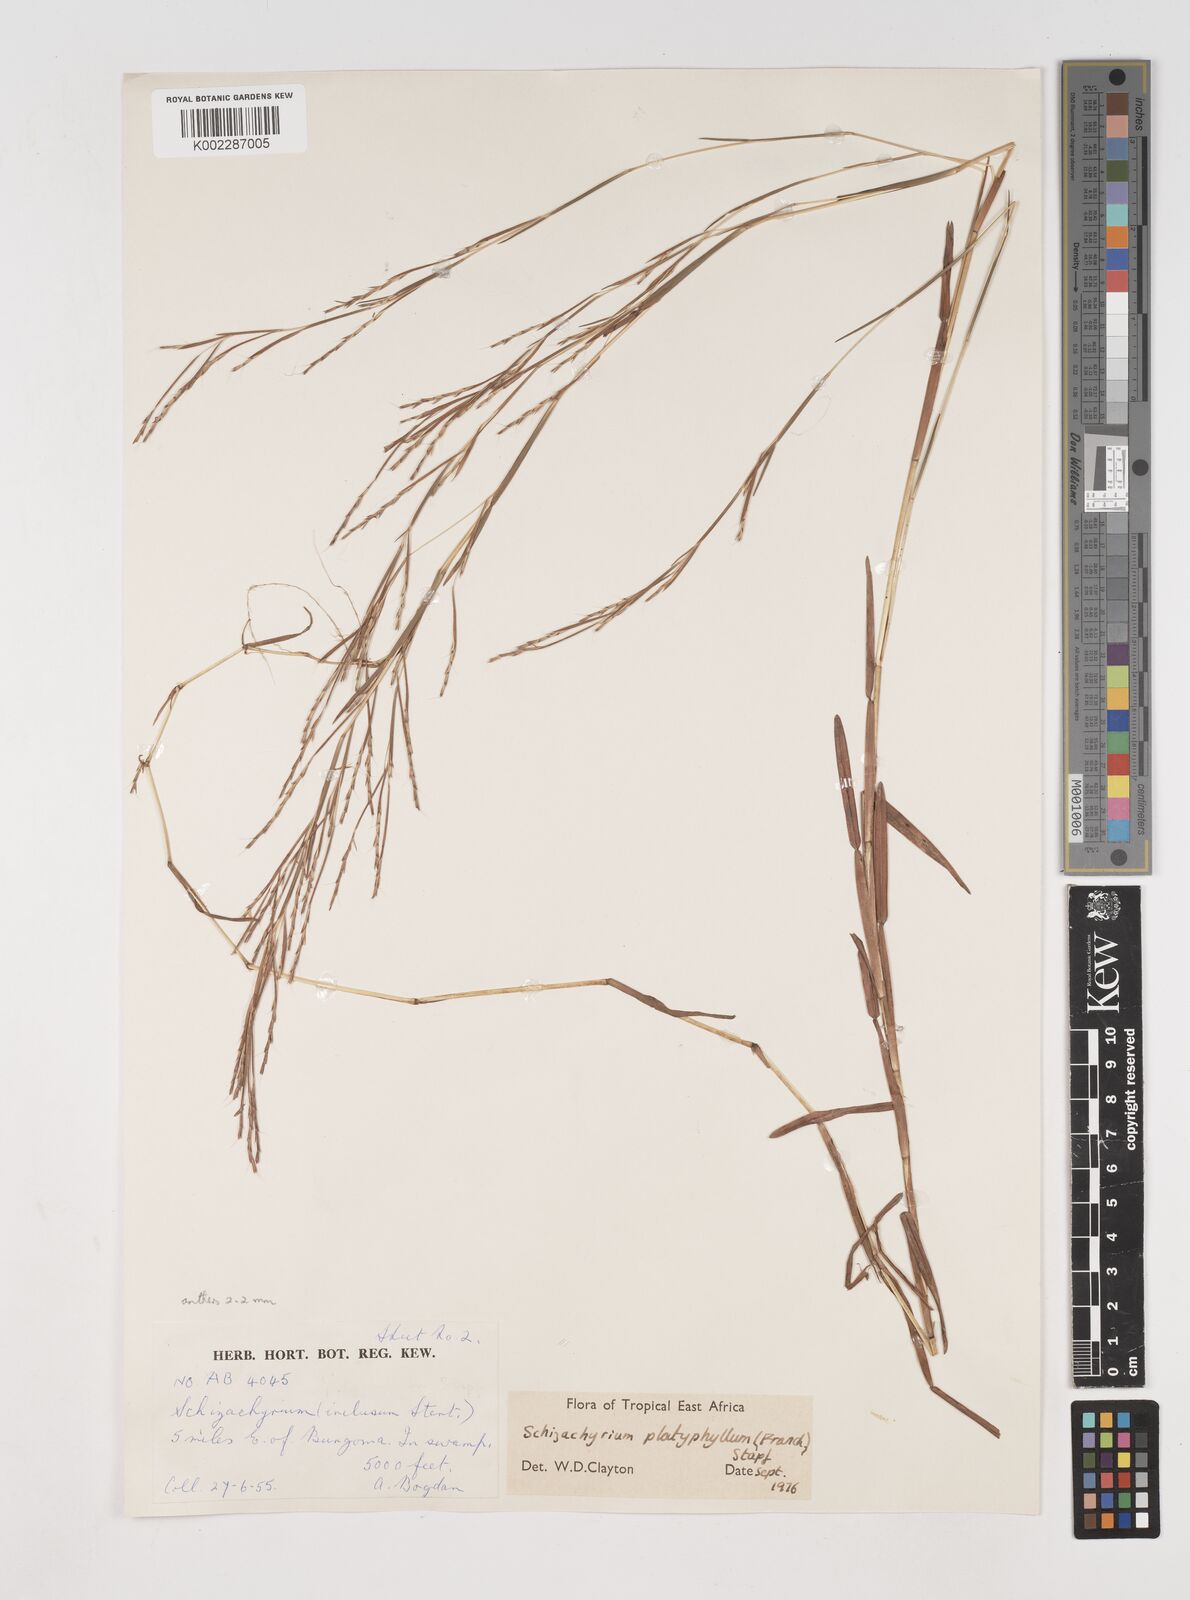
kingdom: Plantae
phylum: Tracheophyta
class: Liliopsida
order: Poales
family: Poaceae
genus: Schizachyrium
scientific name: Schizachyrium platyphyllum
